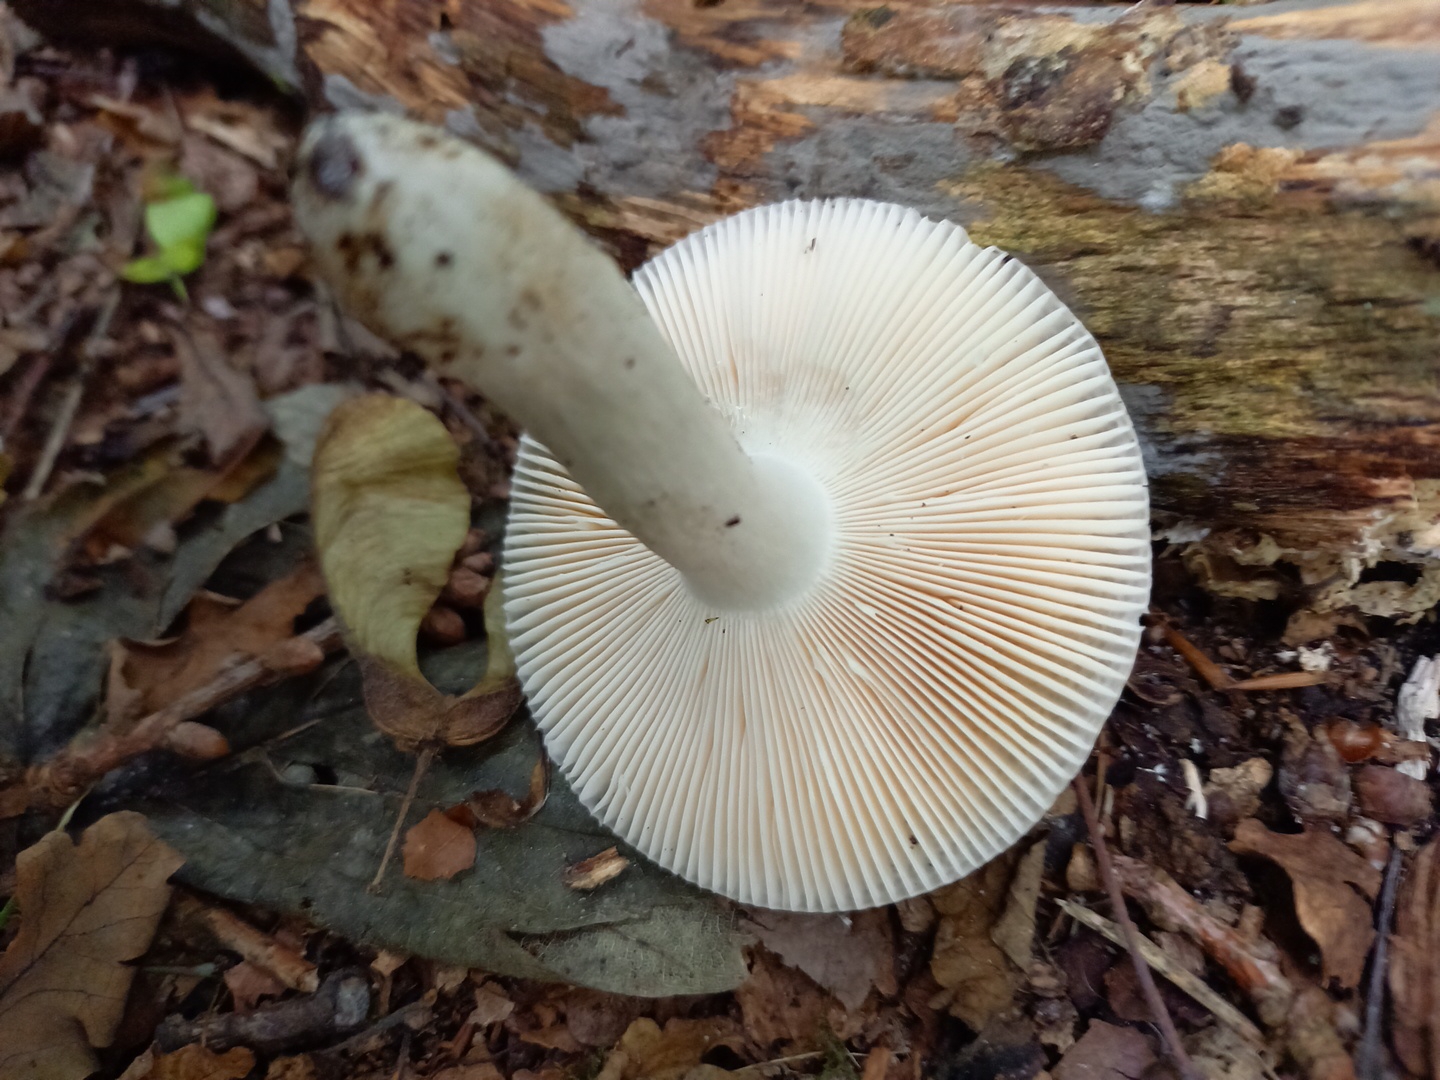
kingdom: Fungi
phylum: Basidiomycota
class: Agaricomycetes
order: Russulales
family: Russulaceae
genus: Russula
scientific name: Russula parazurea
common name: blågrå skørhat
